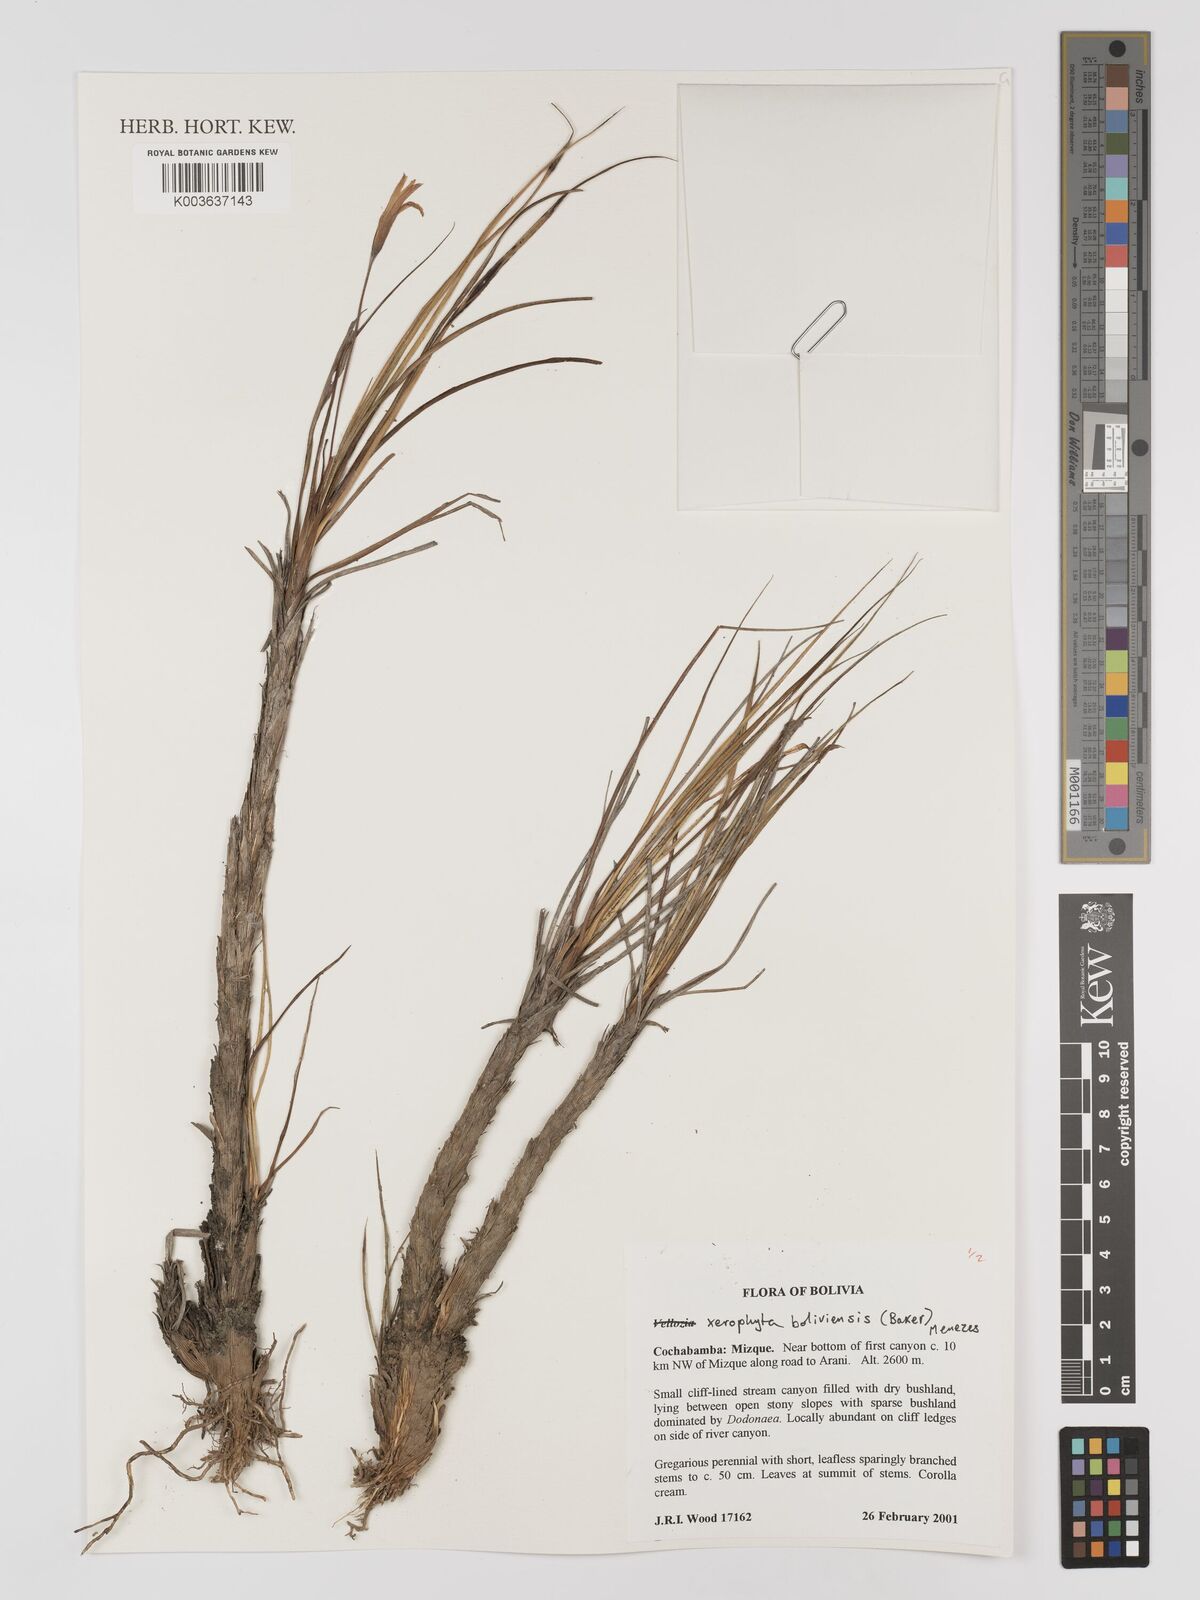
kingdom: Plantae
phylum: Tracheophyta
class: Liliopsida
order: Pandanales
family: Velloziaceae
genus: Barbaceniopsis
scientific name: Barbaceniopsis boliviensis
